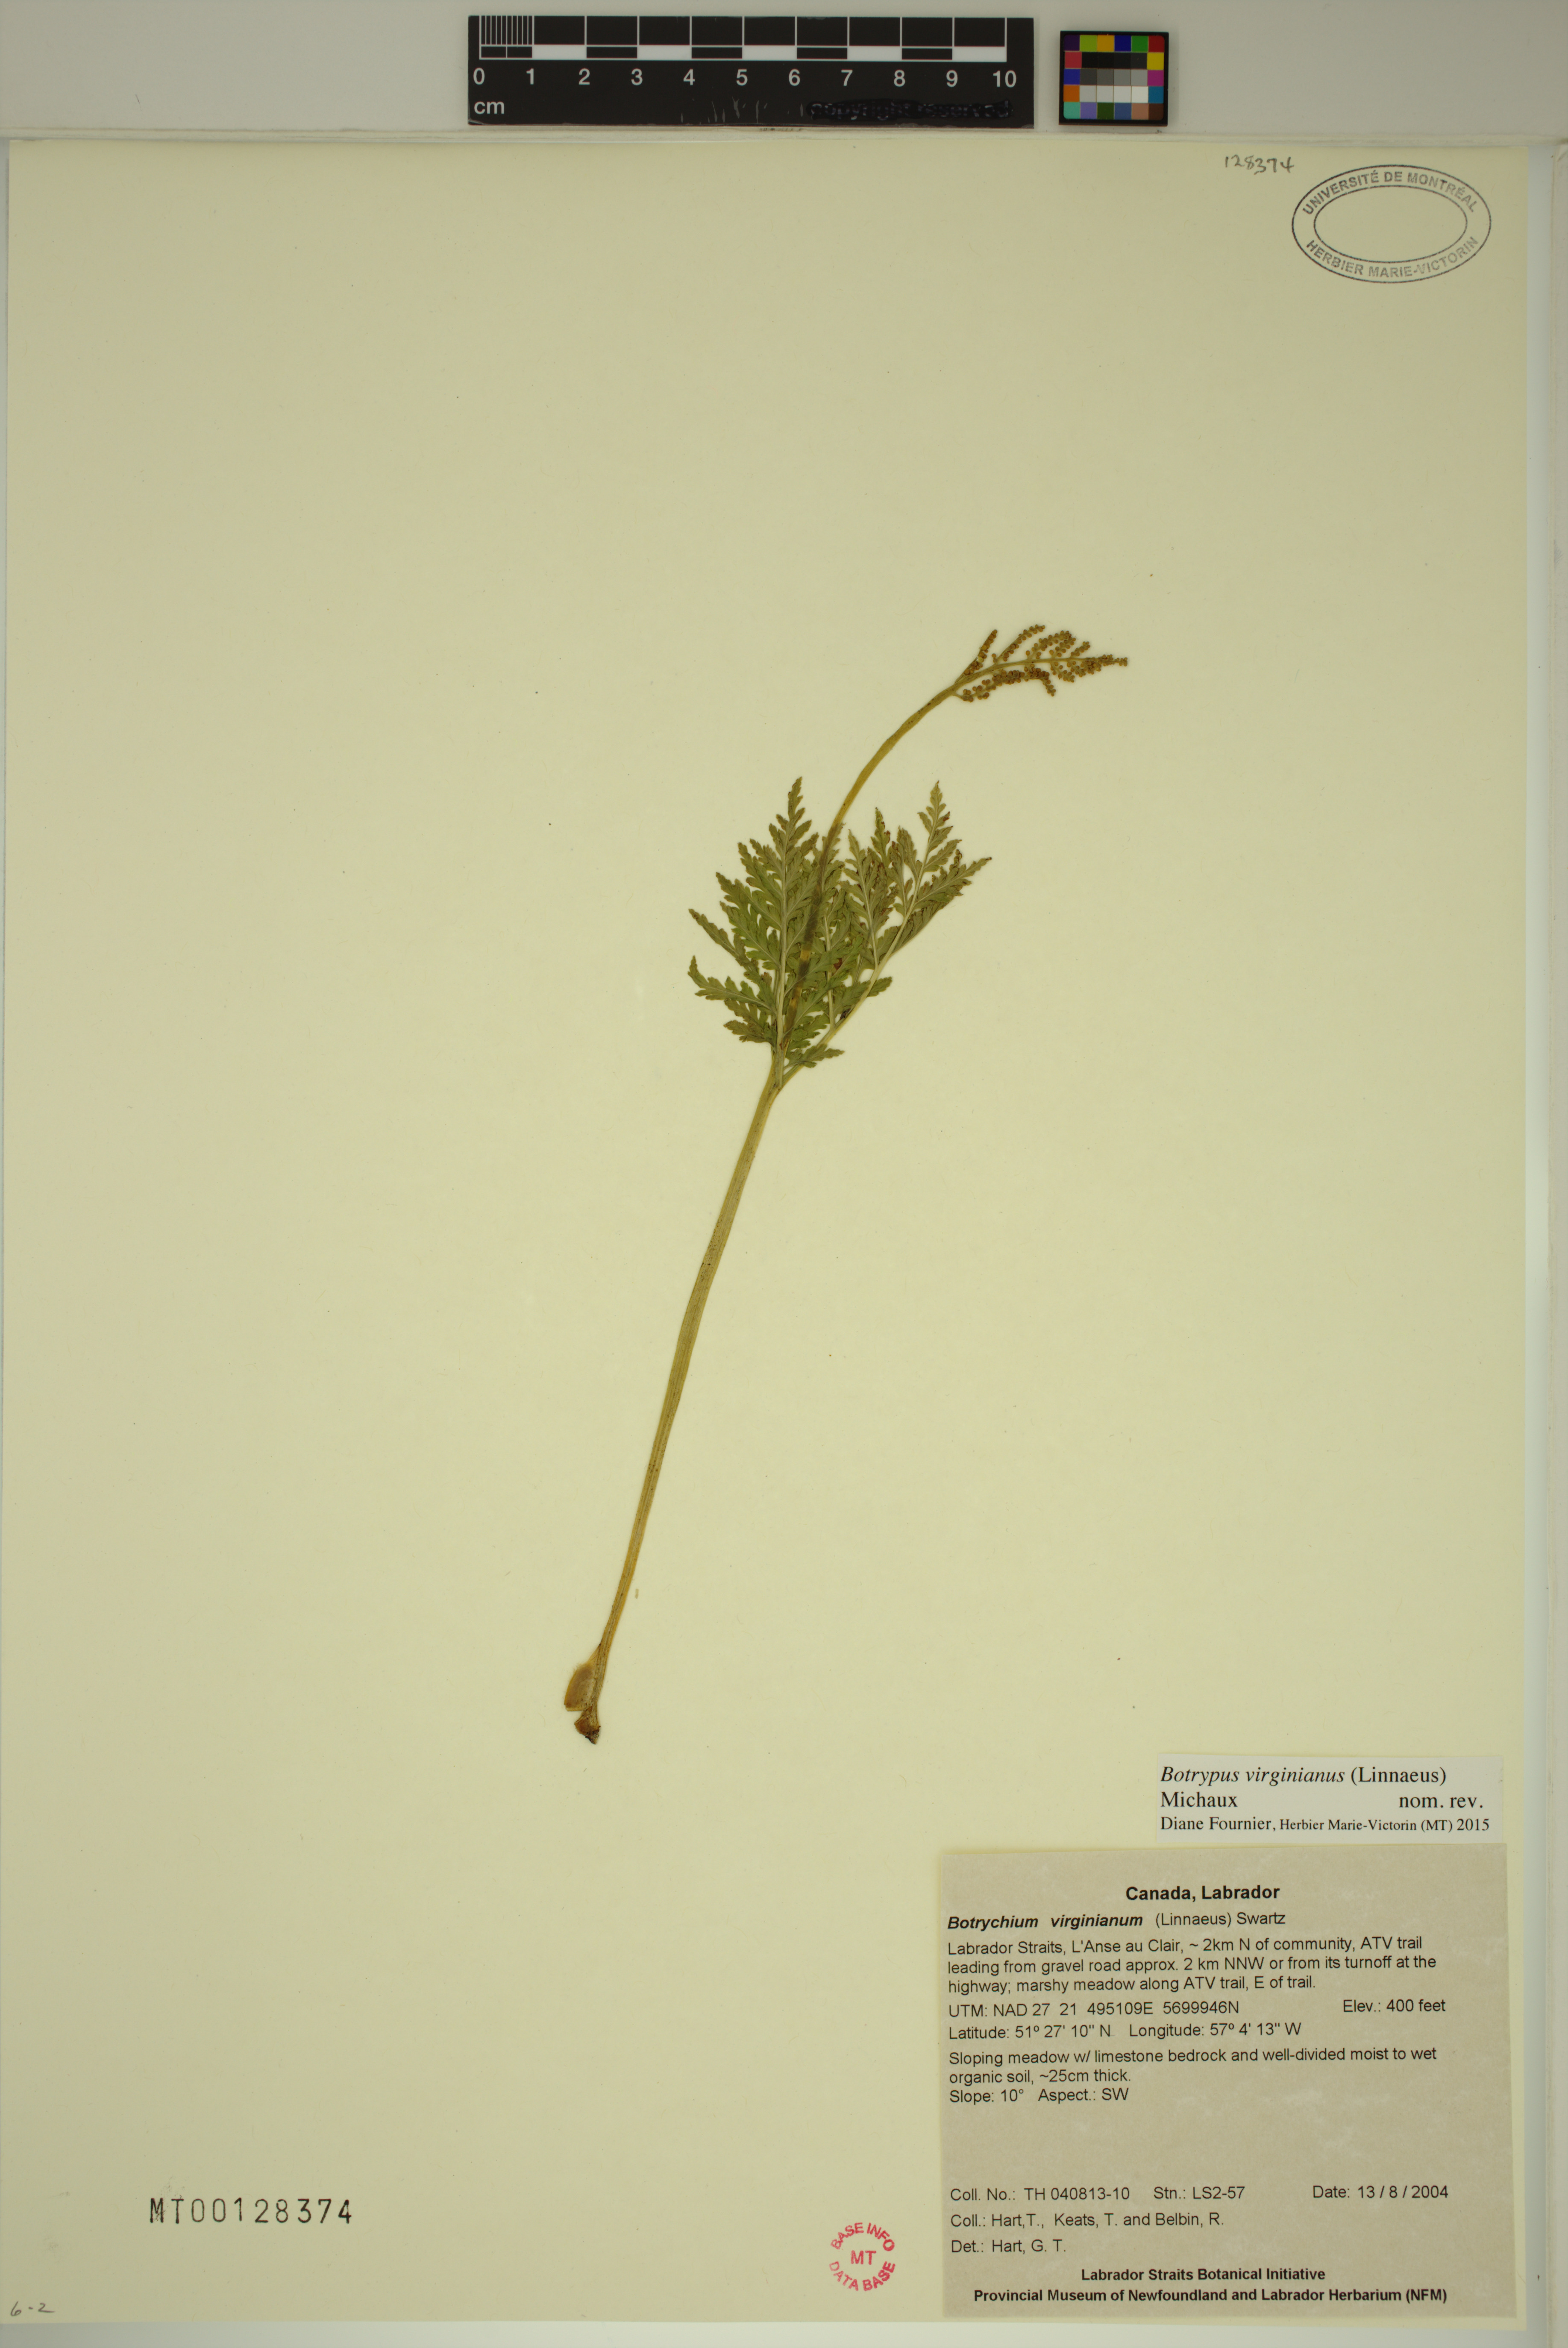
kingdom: Plantae
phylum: Tracheophyta
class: Polypodiopsida
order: Ophioglossales
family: Ophioglossaceae
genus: Botrypus
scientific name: Botrypus virginianus
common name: Common grapefern
